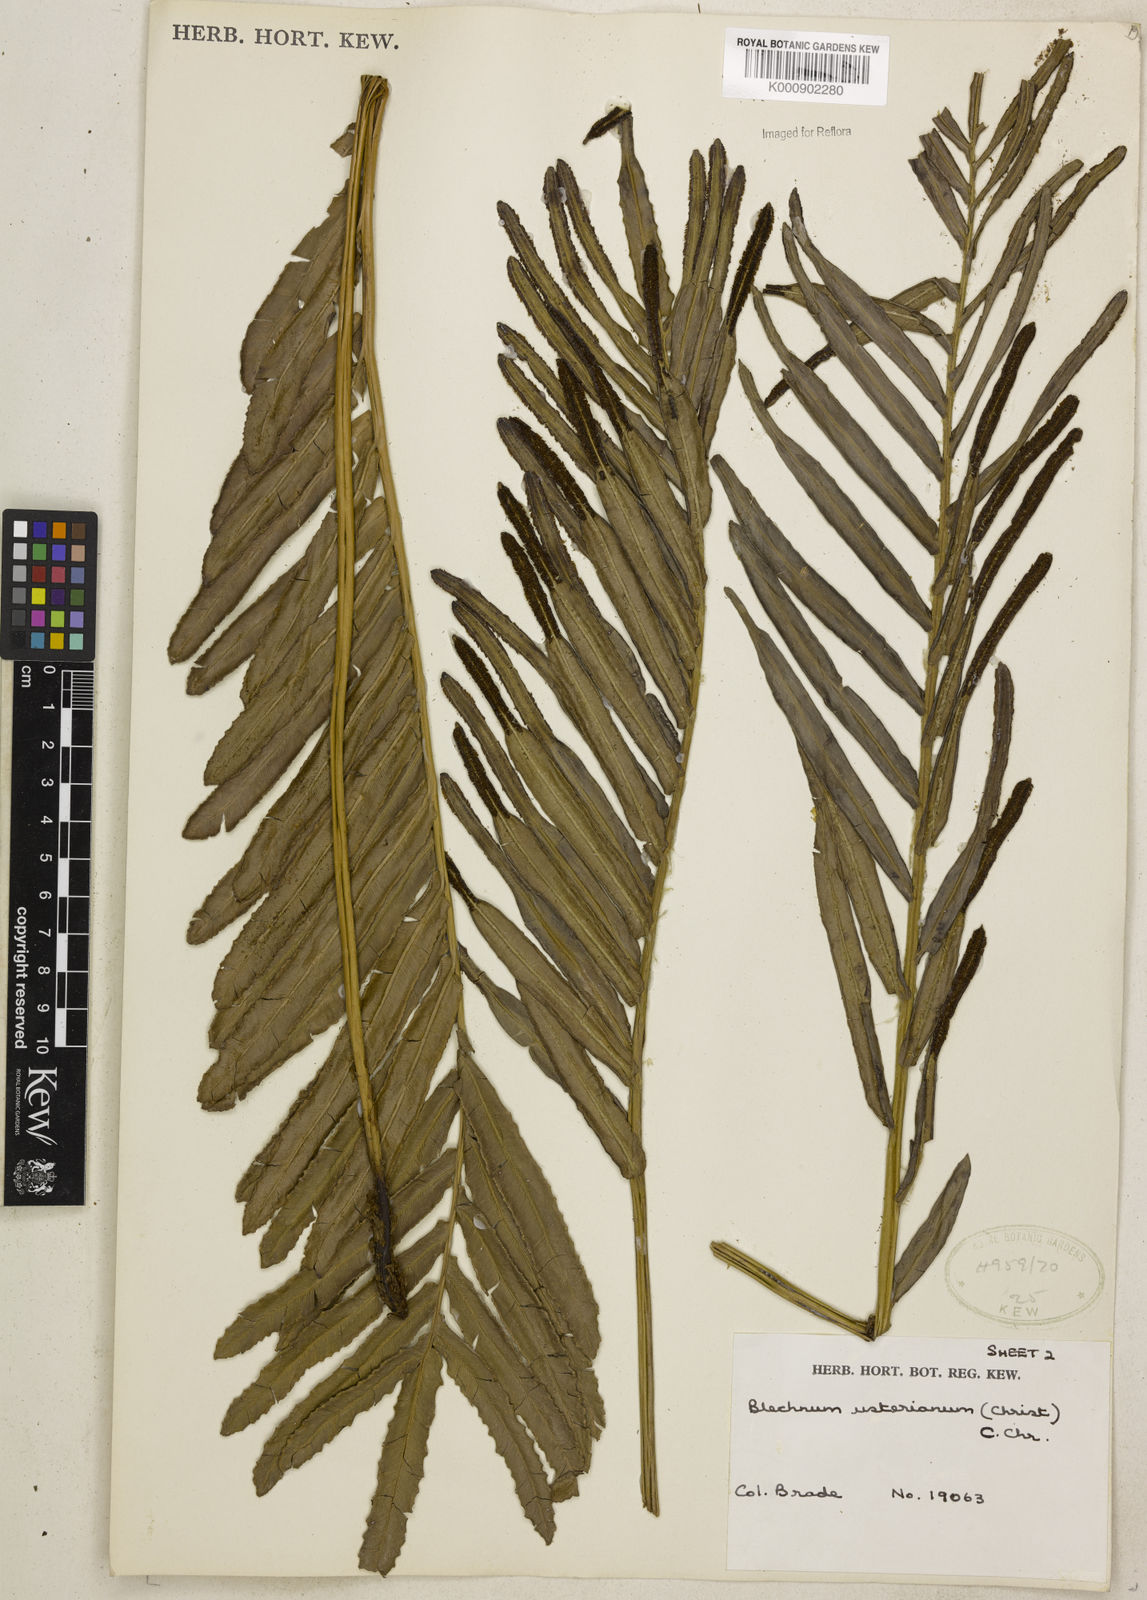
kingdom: Plantae
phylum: Tracheophyta
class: Polypodiopsida
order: Polypodiales
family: Blechnaceae
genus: Parablechnum
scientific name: Parablechnum usterianum
